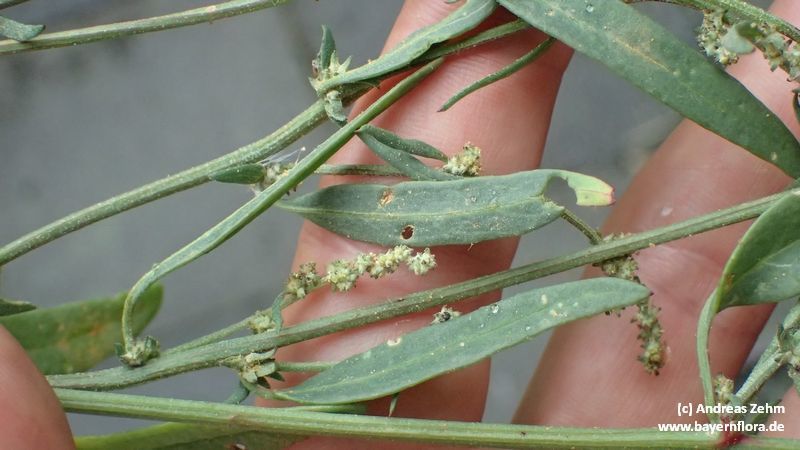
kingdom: Plantae
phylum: Tracheophyta
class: Magnoliopsida
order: Caryophyllales
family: Amaranthaceae
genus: Atriplex
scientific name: Atriplex patula
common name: Common orache
